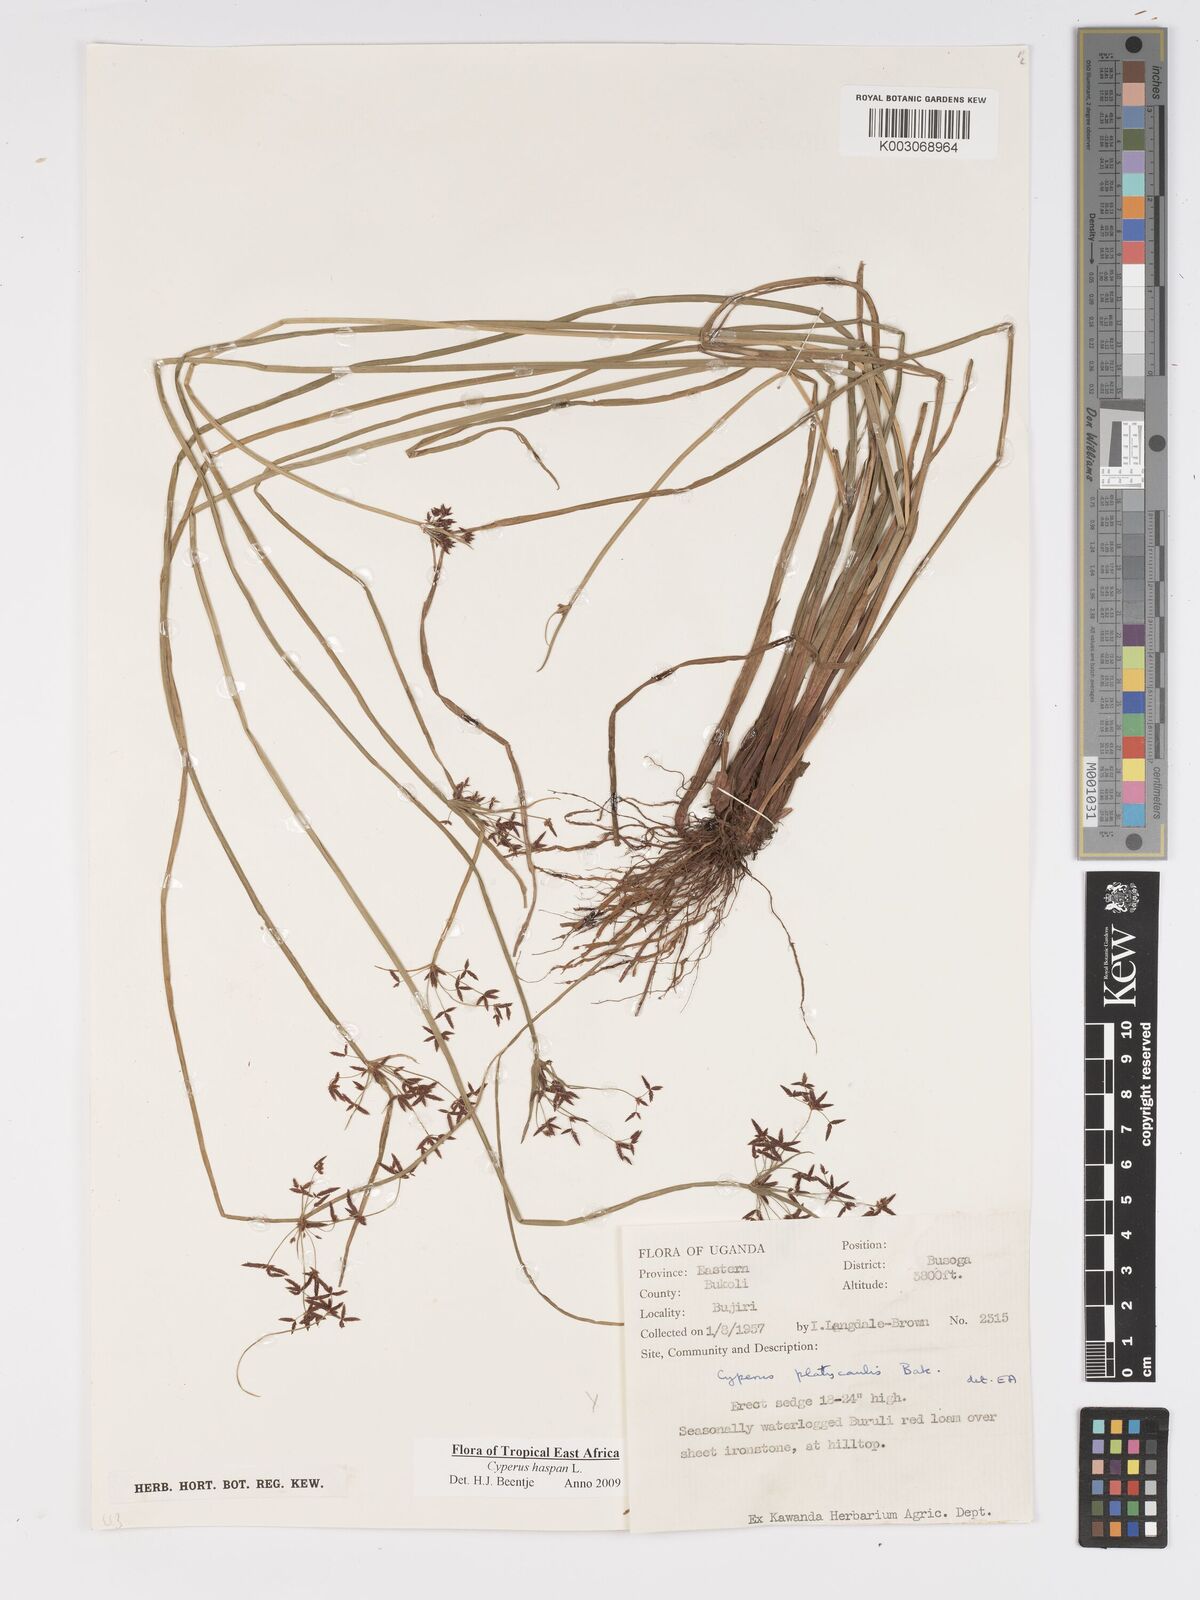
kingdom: Plantae
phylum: Tracheophyta
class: Liliopsida
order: Poales
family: Cyperaceae
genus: Cyperus
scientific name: Cyperus haspan
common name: Haspan flatsedge
